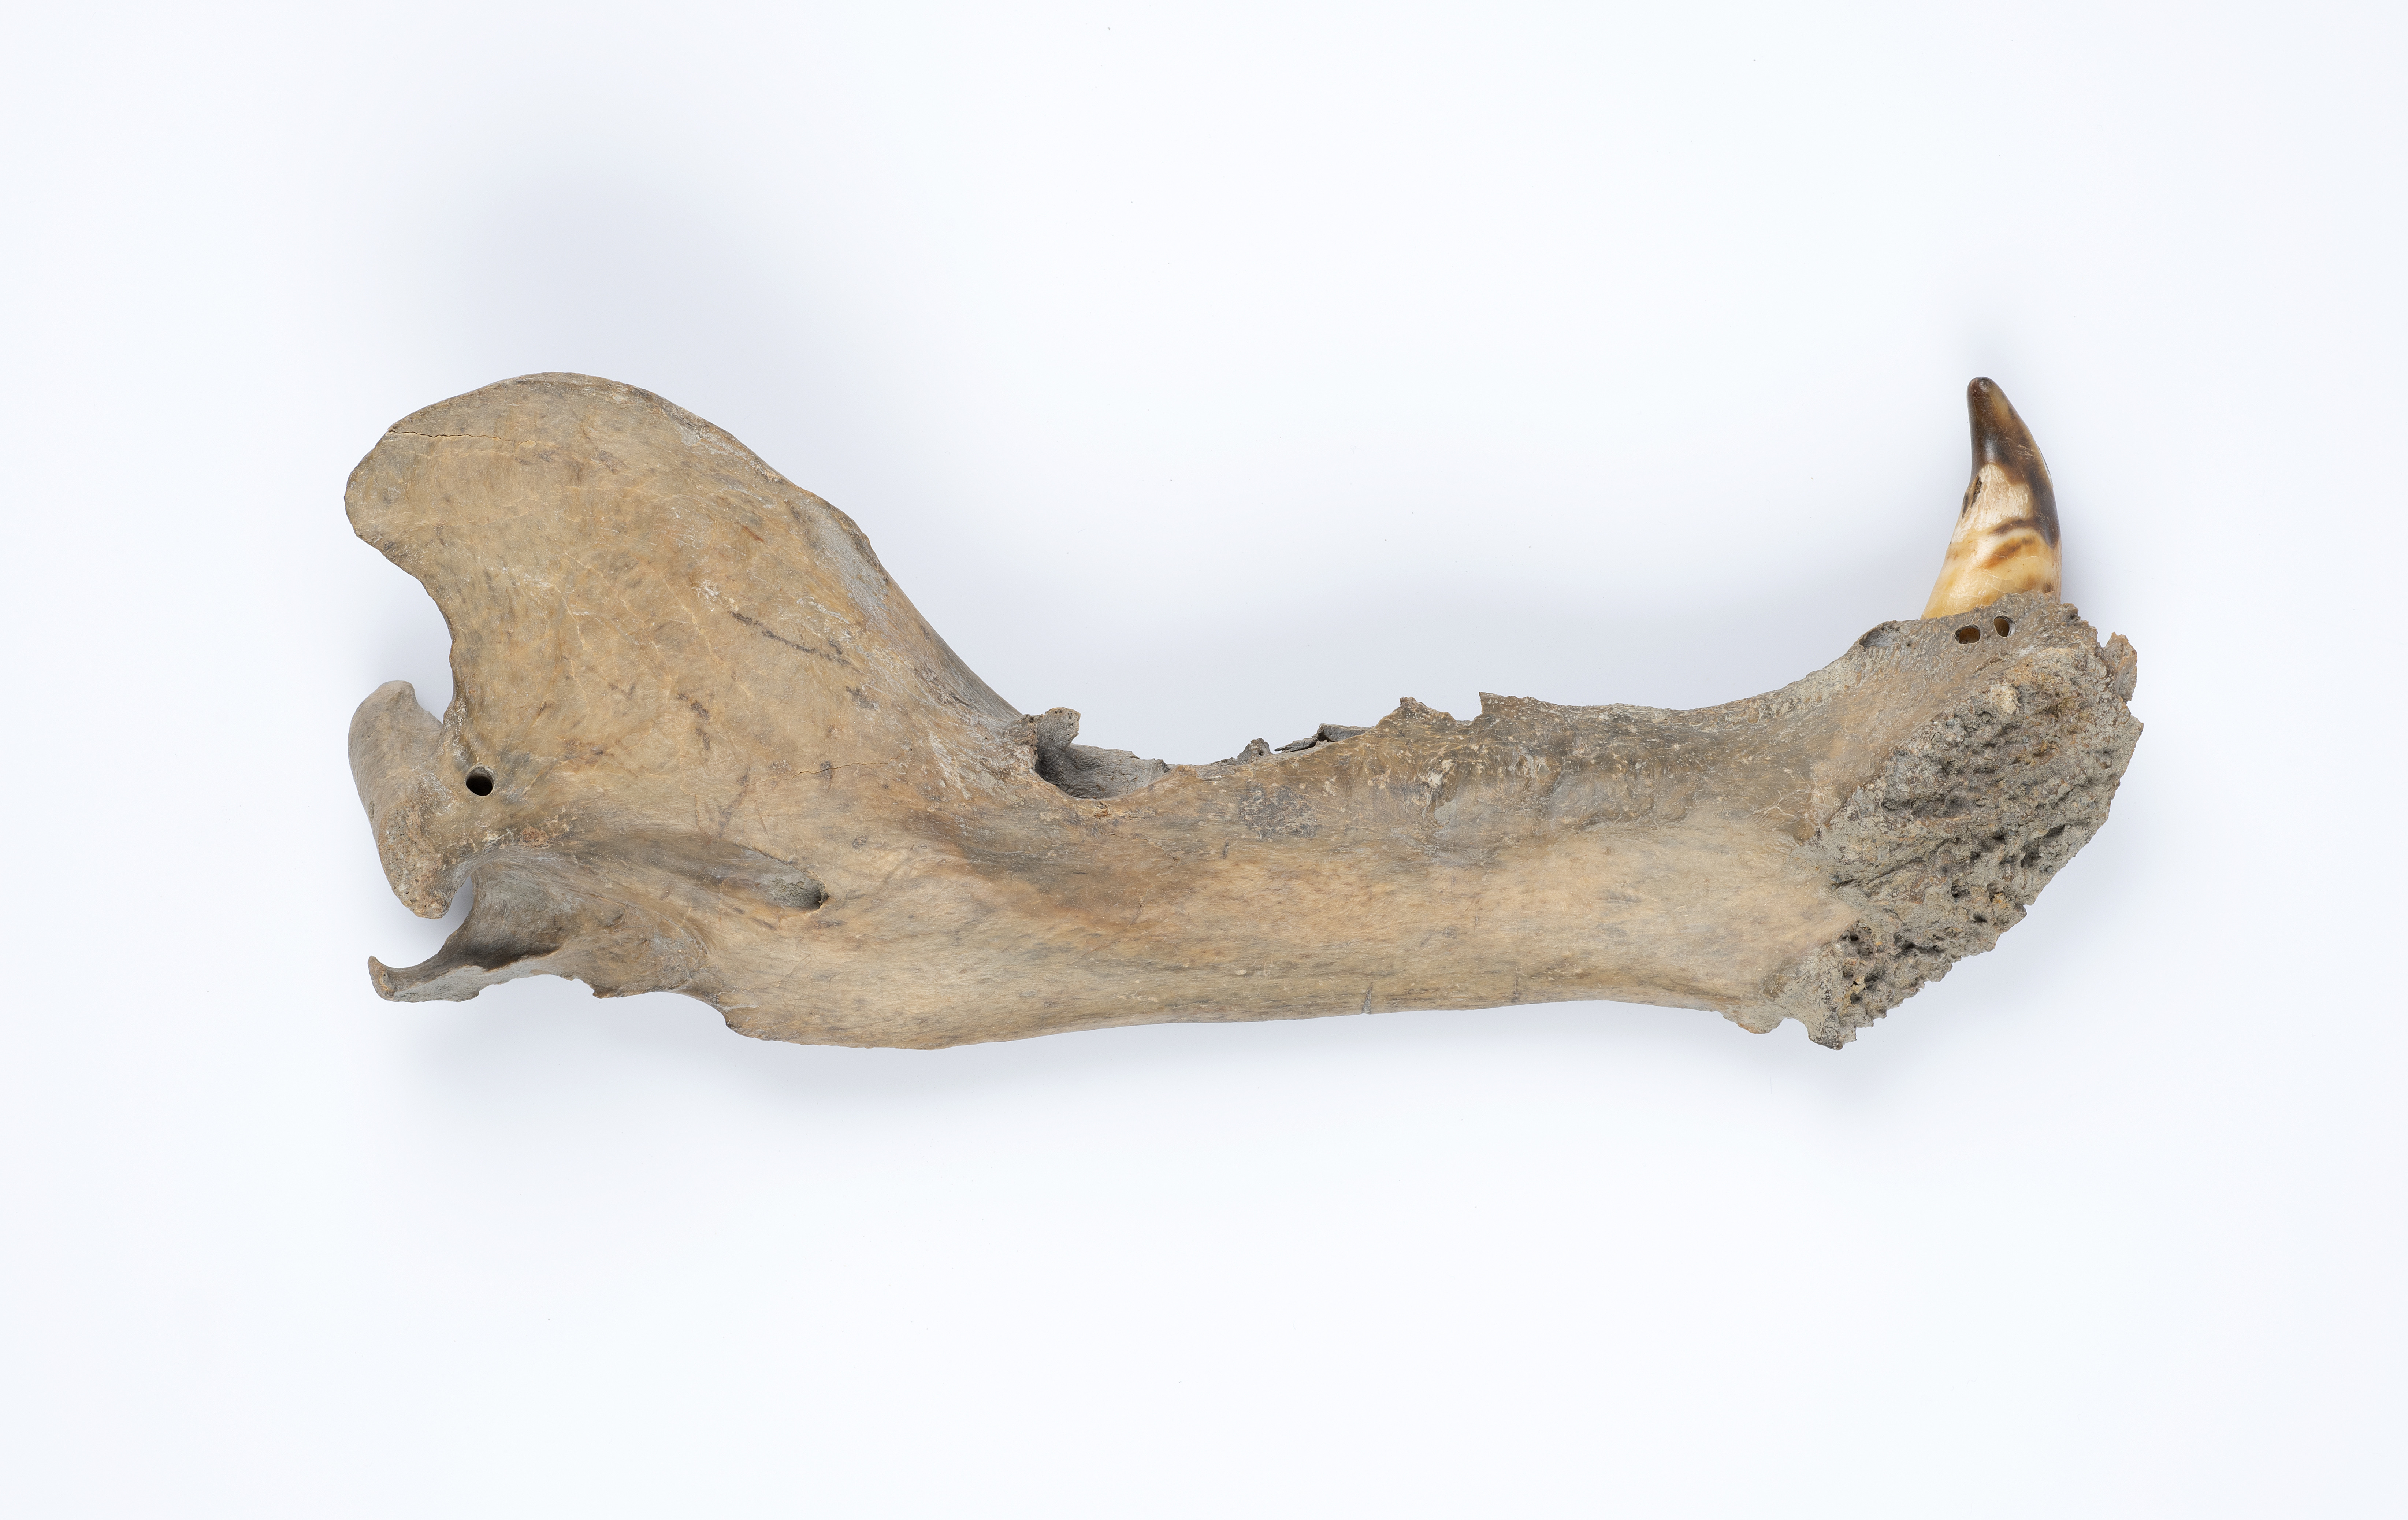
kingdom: Animalia
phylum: Chordata
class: Mammalia
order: Carnivora
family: Ursidae
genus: Ursus
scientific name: Ursus maritimus
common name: Polar bear
